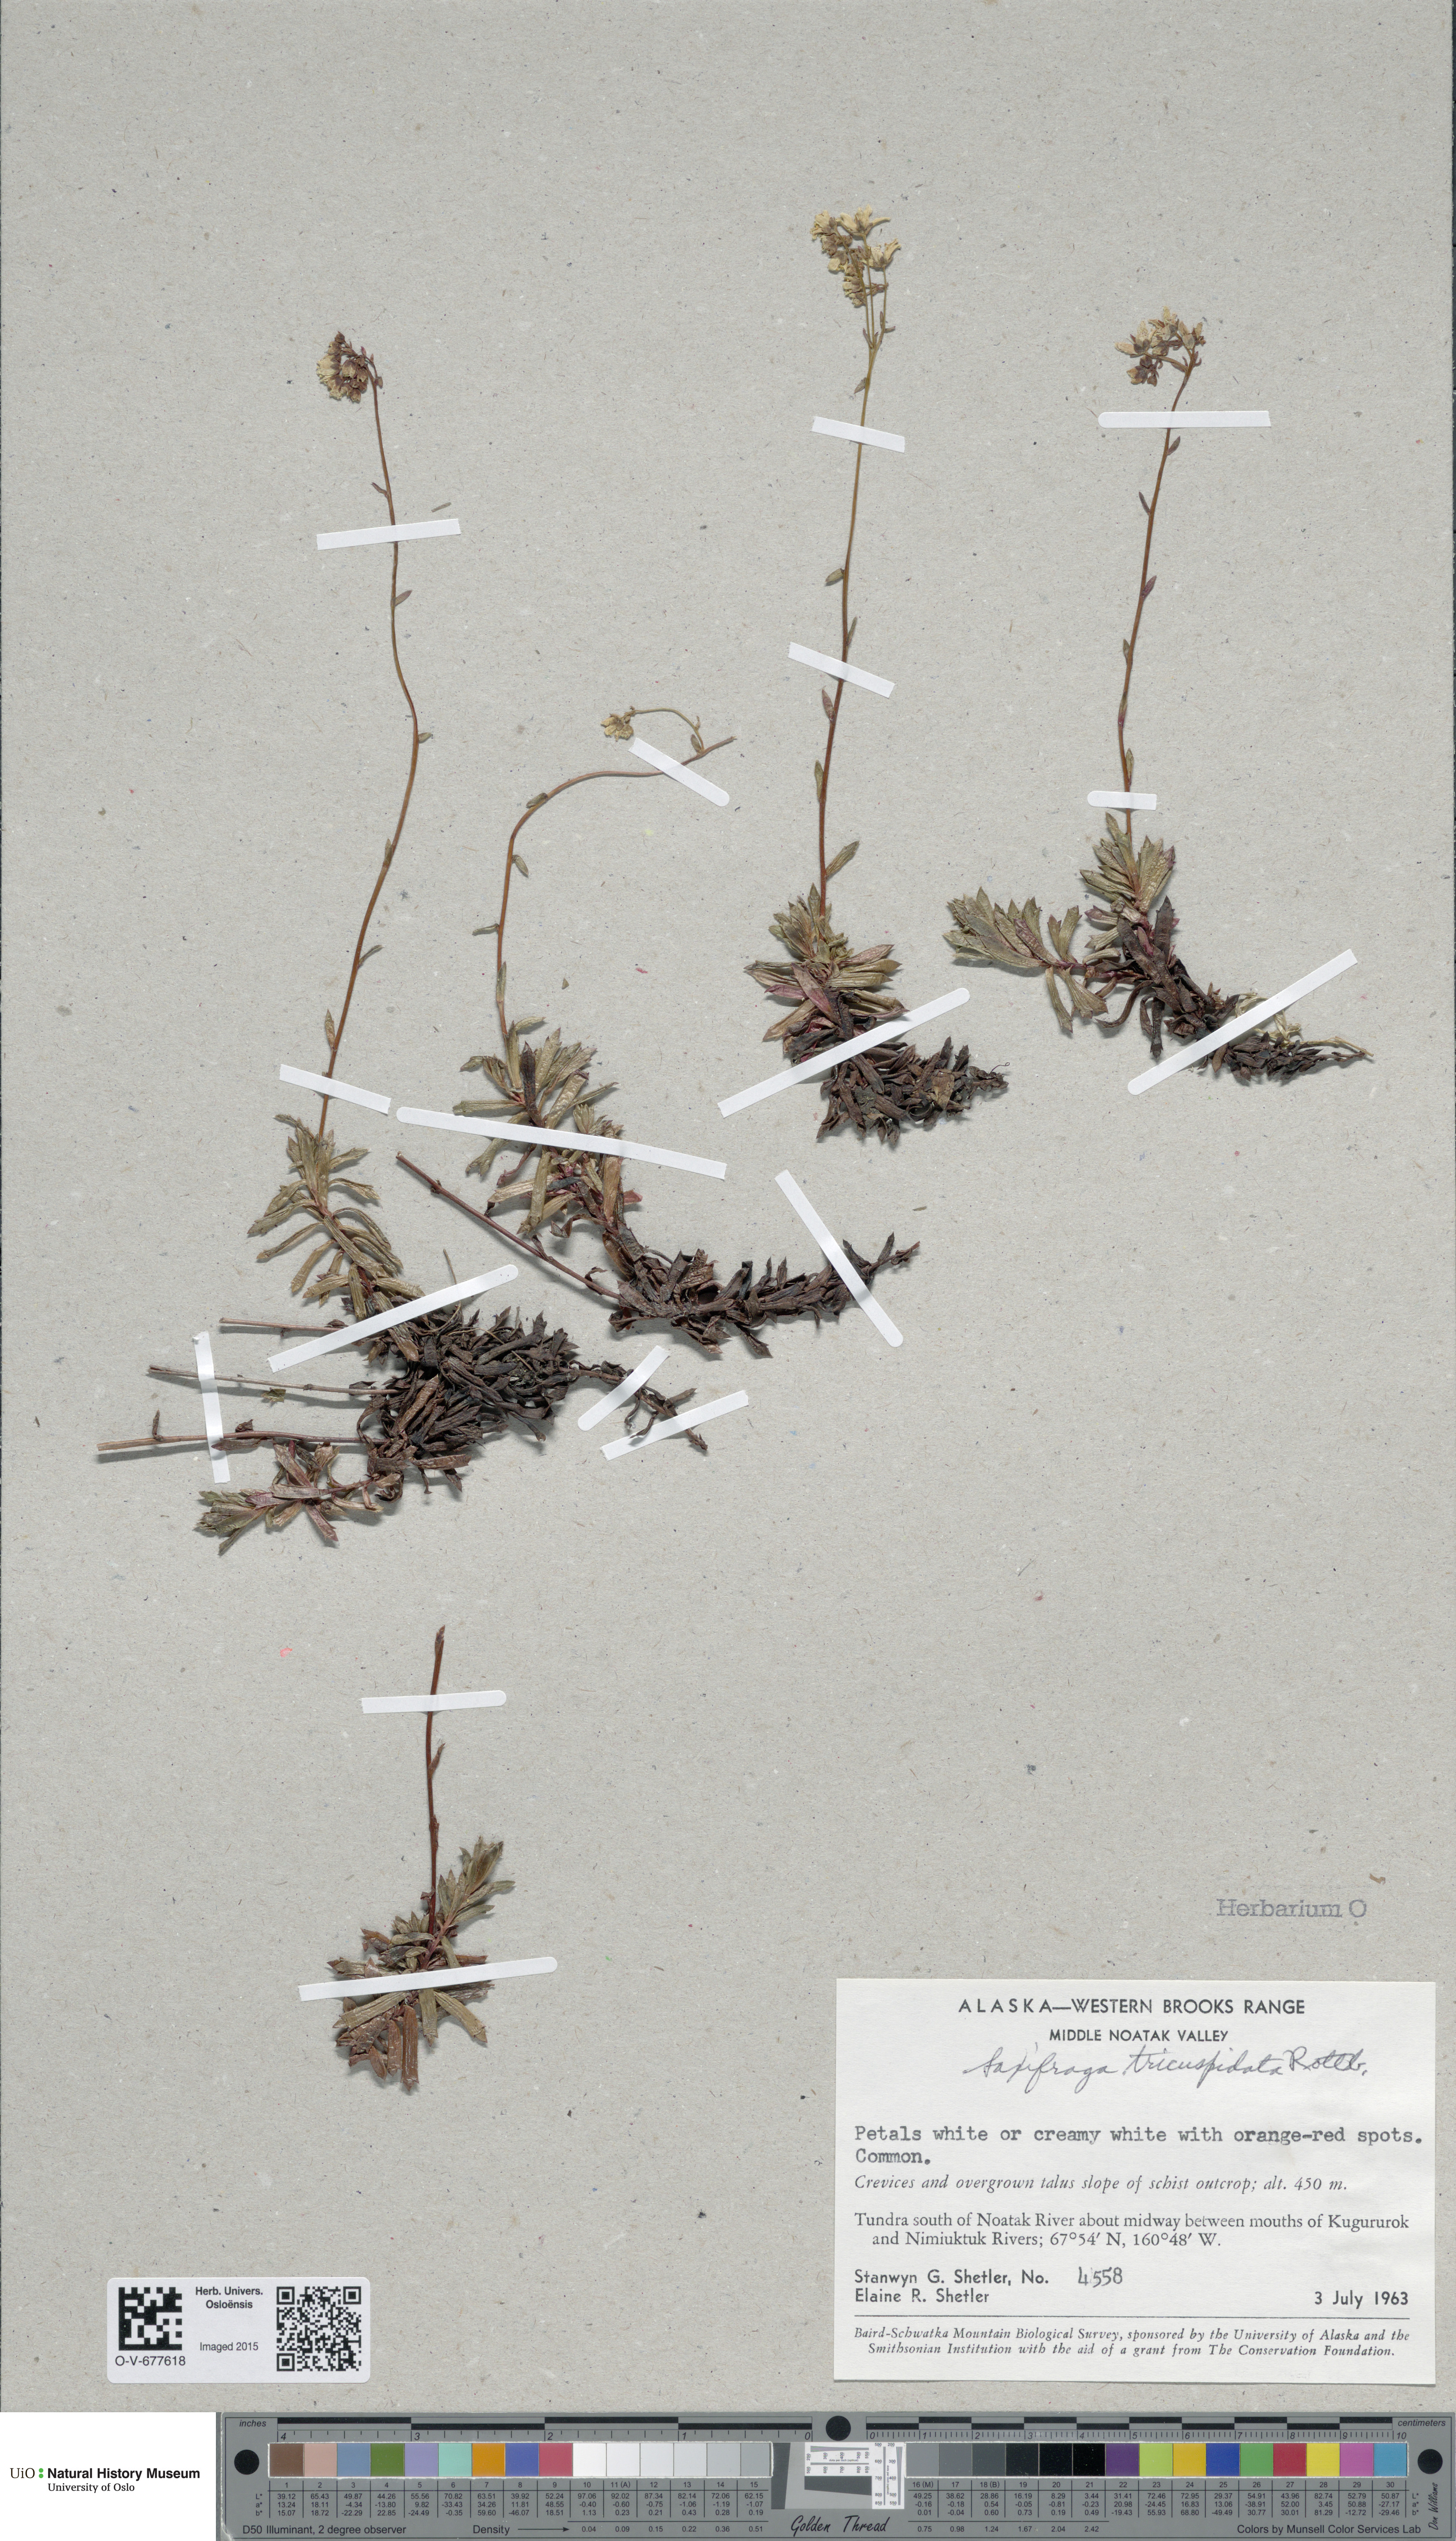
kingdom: Plantae
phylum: Tracheophyta
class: Magnoliopsida
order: Saxifragales
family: Saxifragaceae
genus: Saxifraga
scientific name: Saxifraga tricuspidata
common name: Prickly saxifrage
